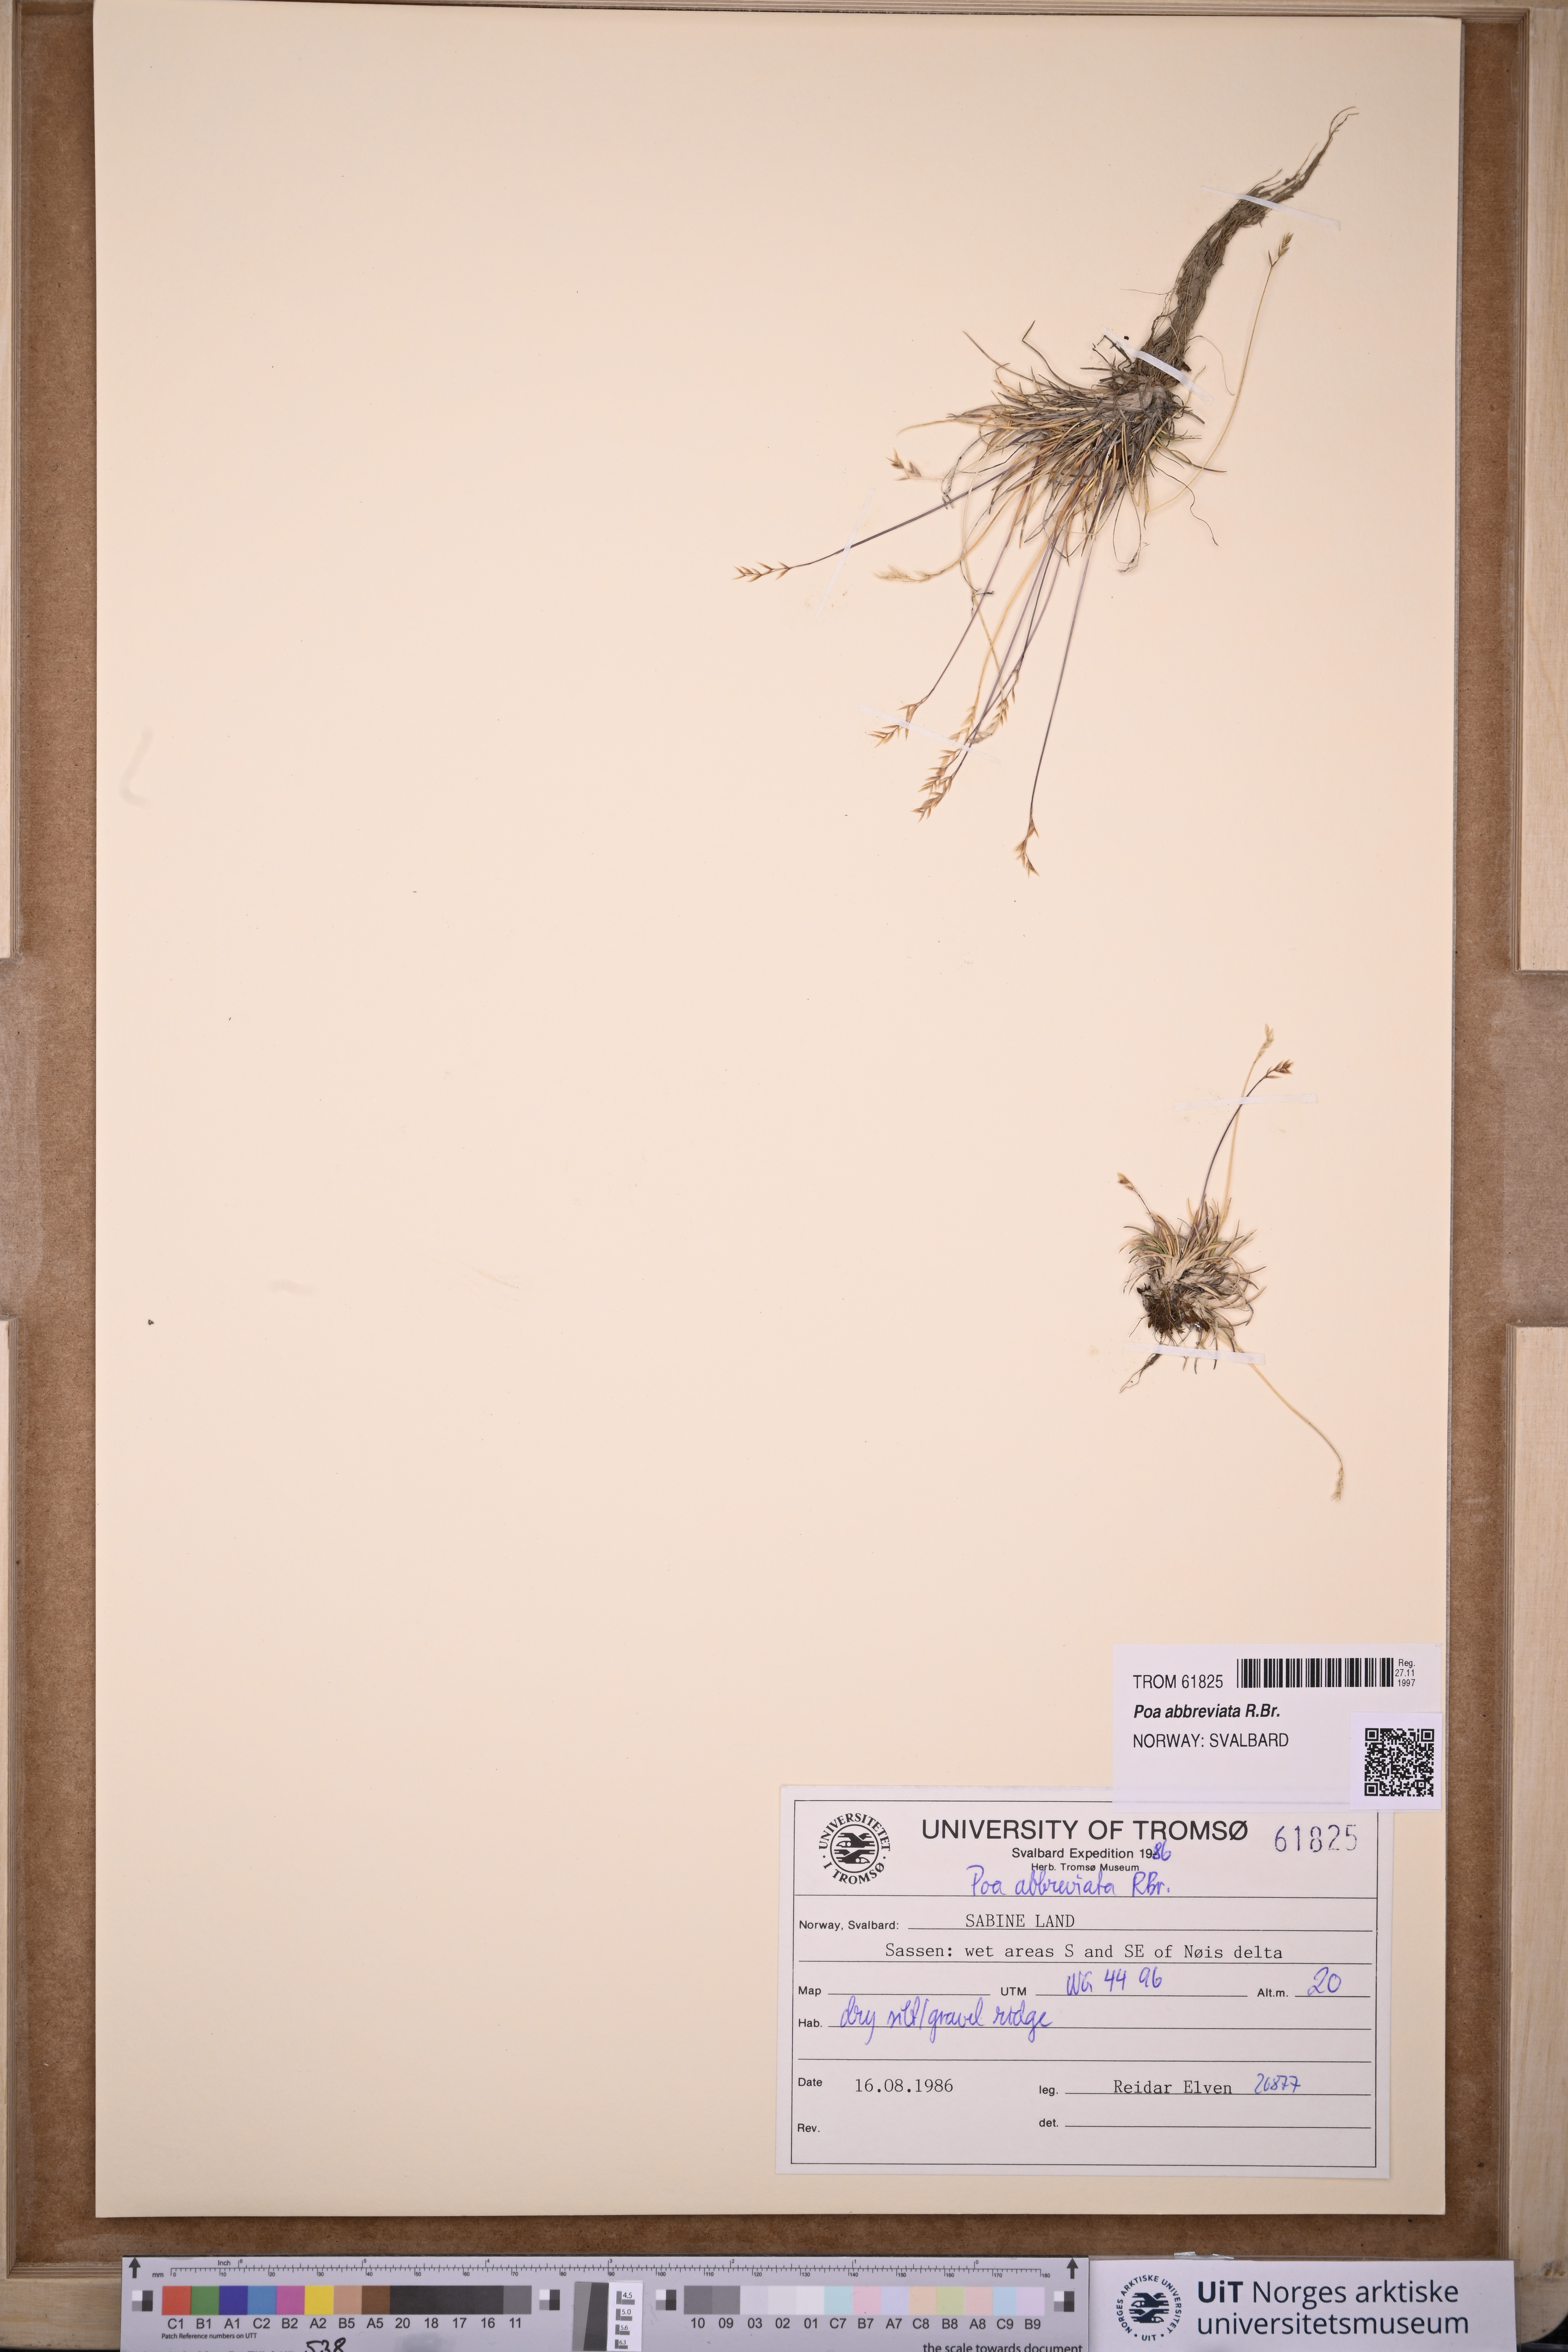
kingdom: Plantae
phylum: Tracheophyta
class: Liliopsida
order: Poales
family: Poaceae
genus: Poa
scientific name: Poa abbreviata
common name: Abbreviated bluegrass
